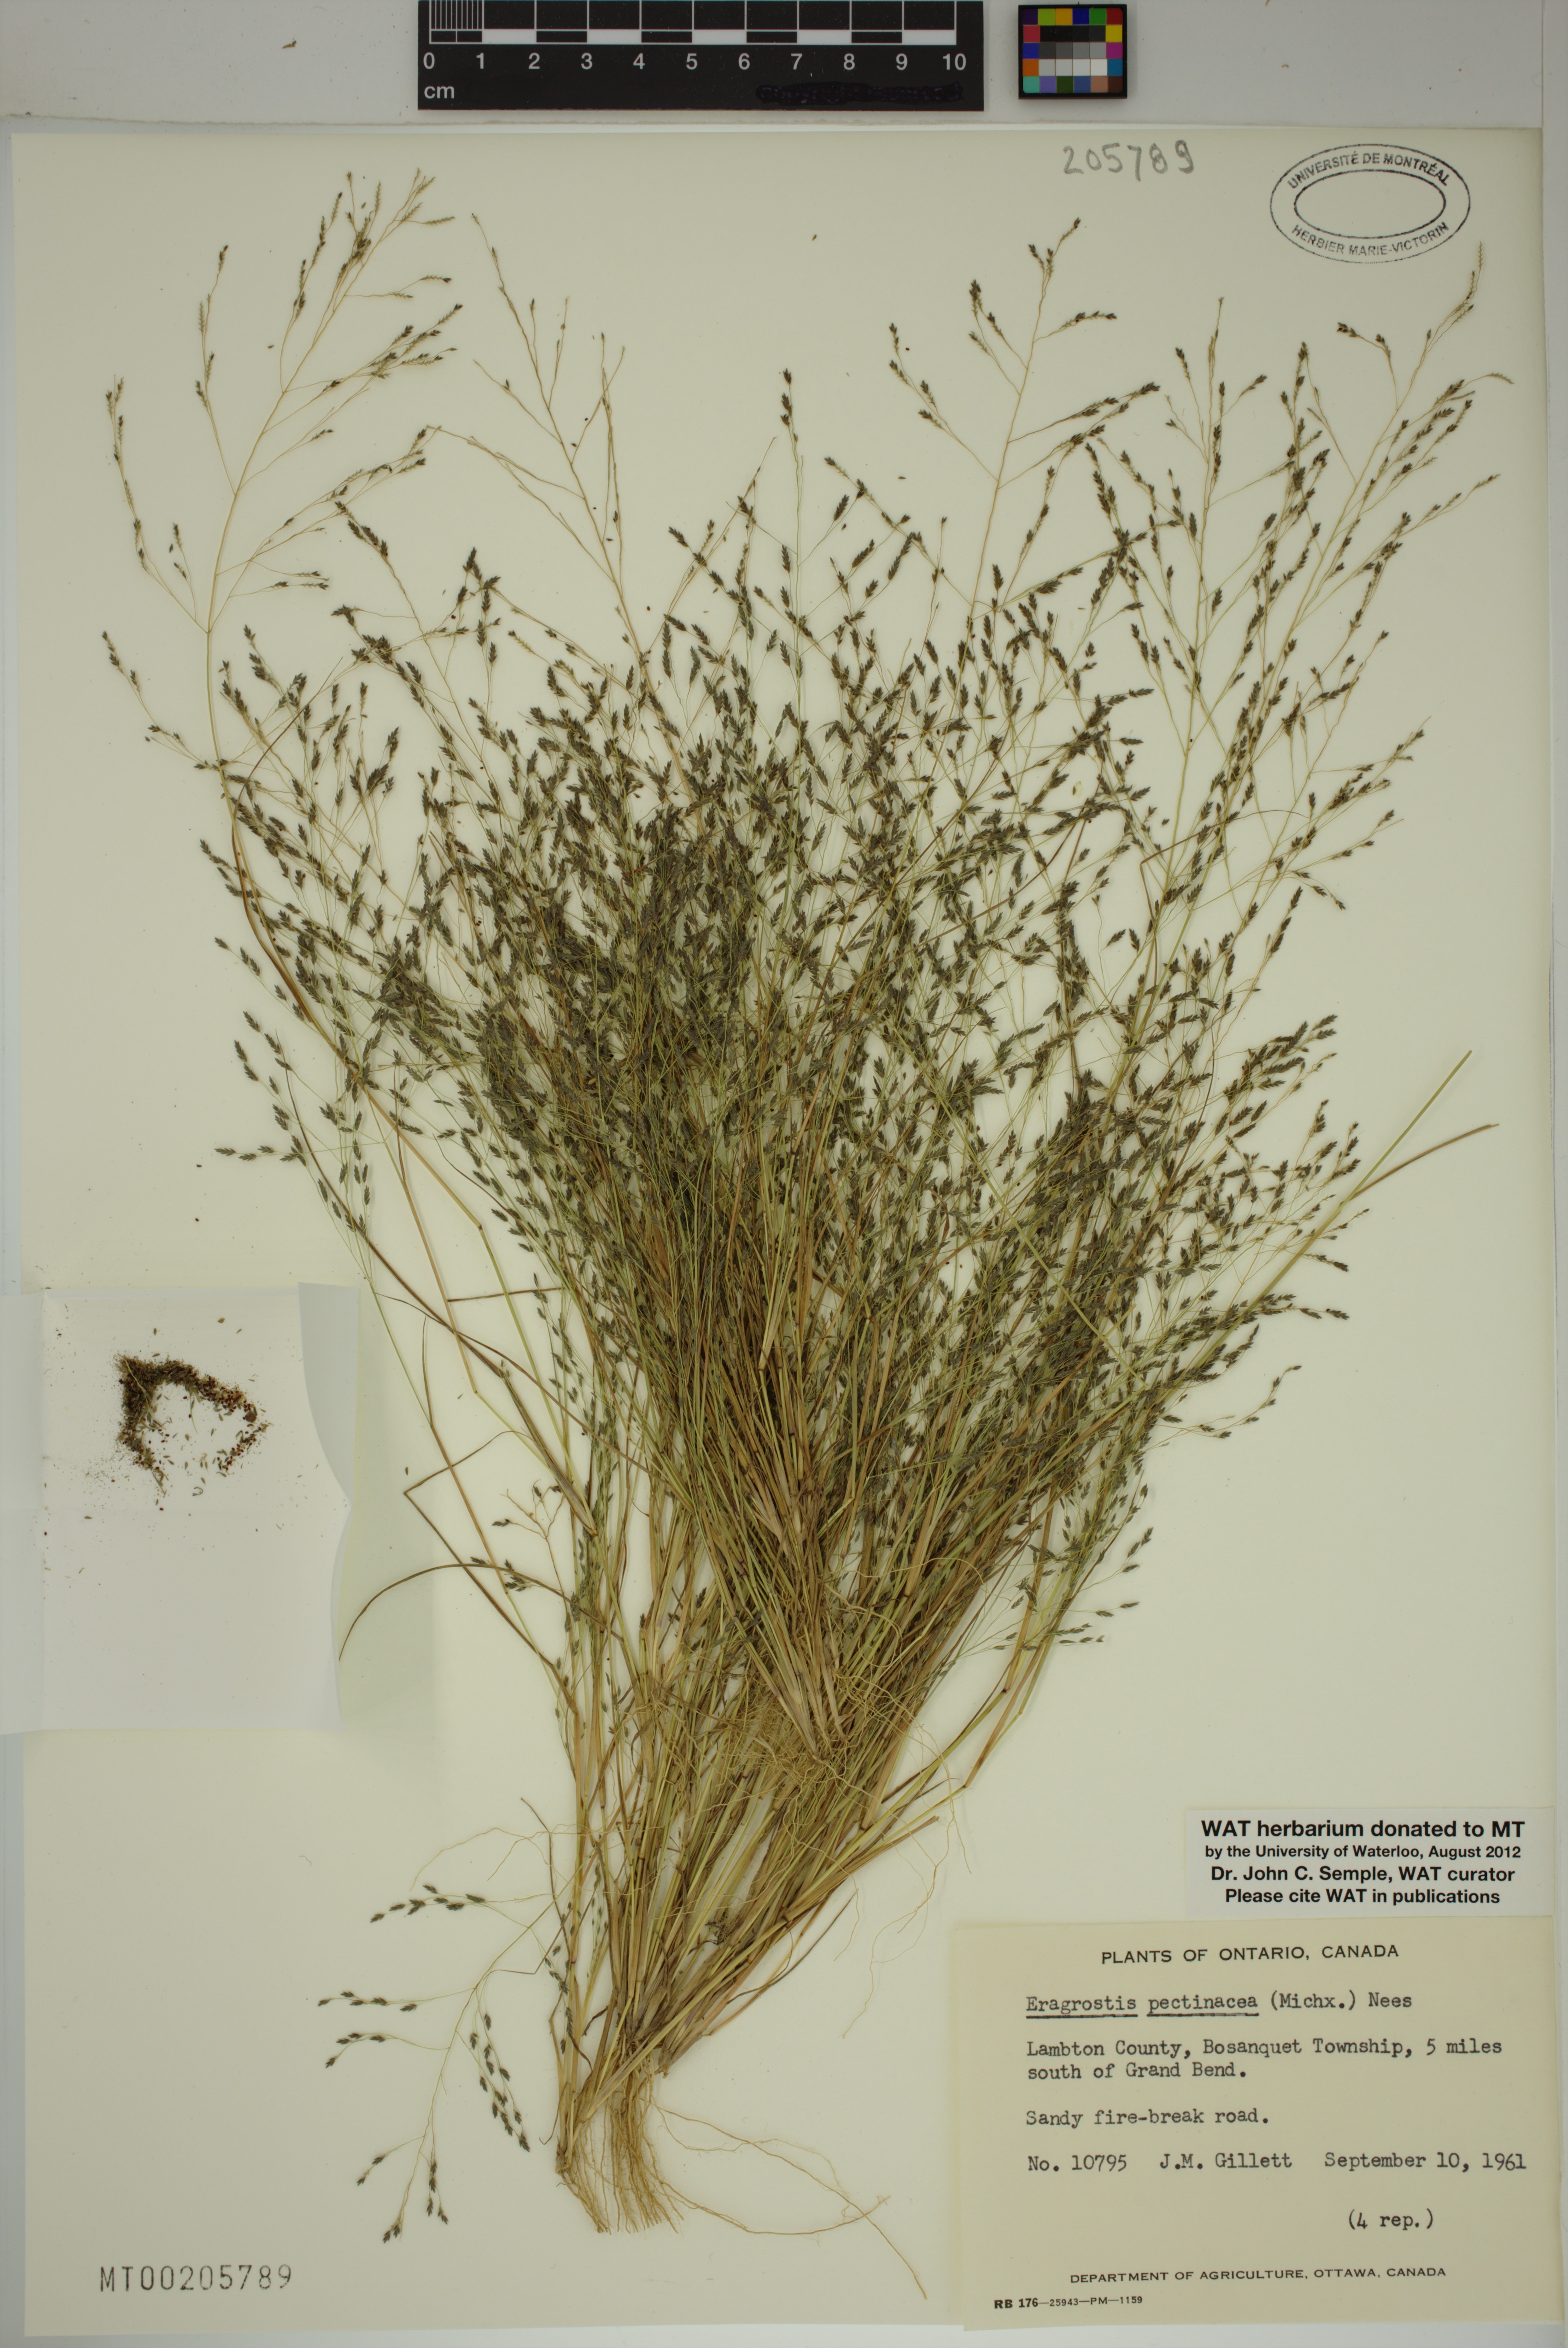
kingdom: Plantae
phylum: Tracheophyta
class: Liliopsida
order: Poales
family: Poaceae
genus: Eragrostis
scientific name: Eragrostis pectinacea
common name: Tufted lovegrass
